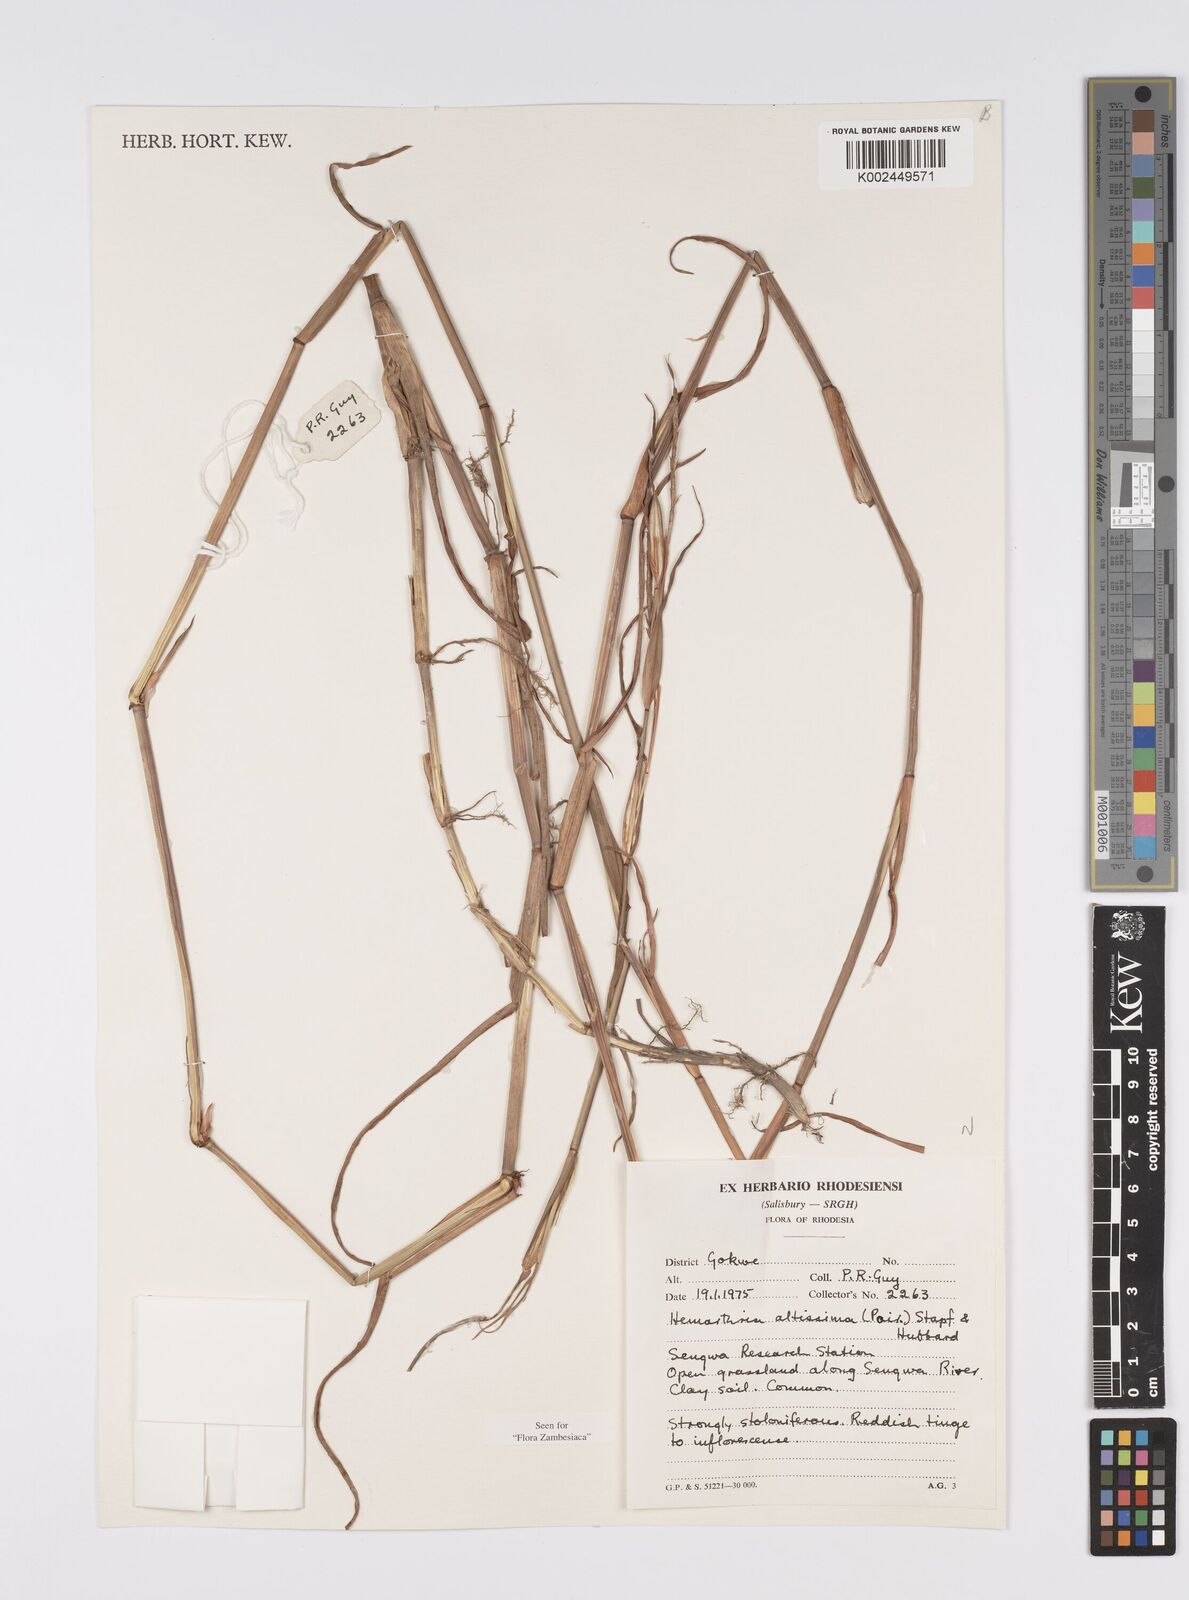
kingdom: Plantae
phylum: Tracheophyta
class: Liliopsida
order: Poales
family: Poaceae
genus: Hemarthria
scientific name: Hemarthria altissima
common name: African jointgrass
